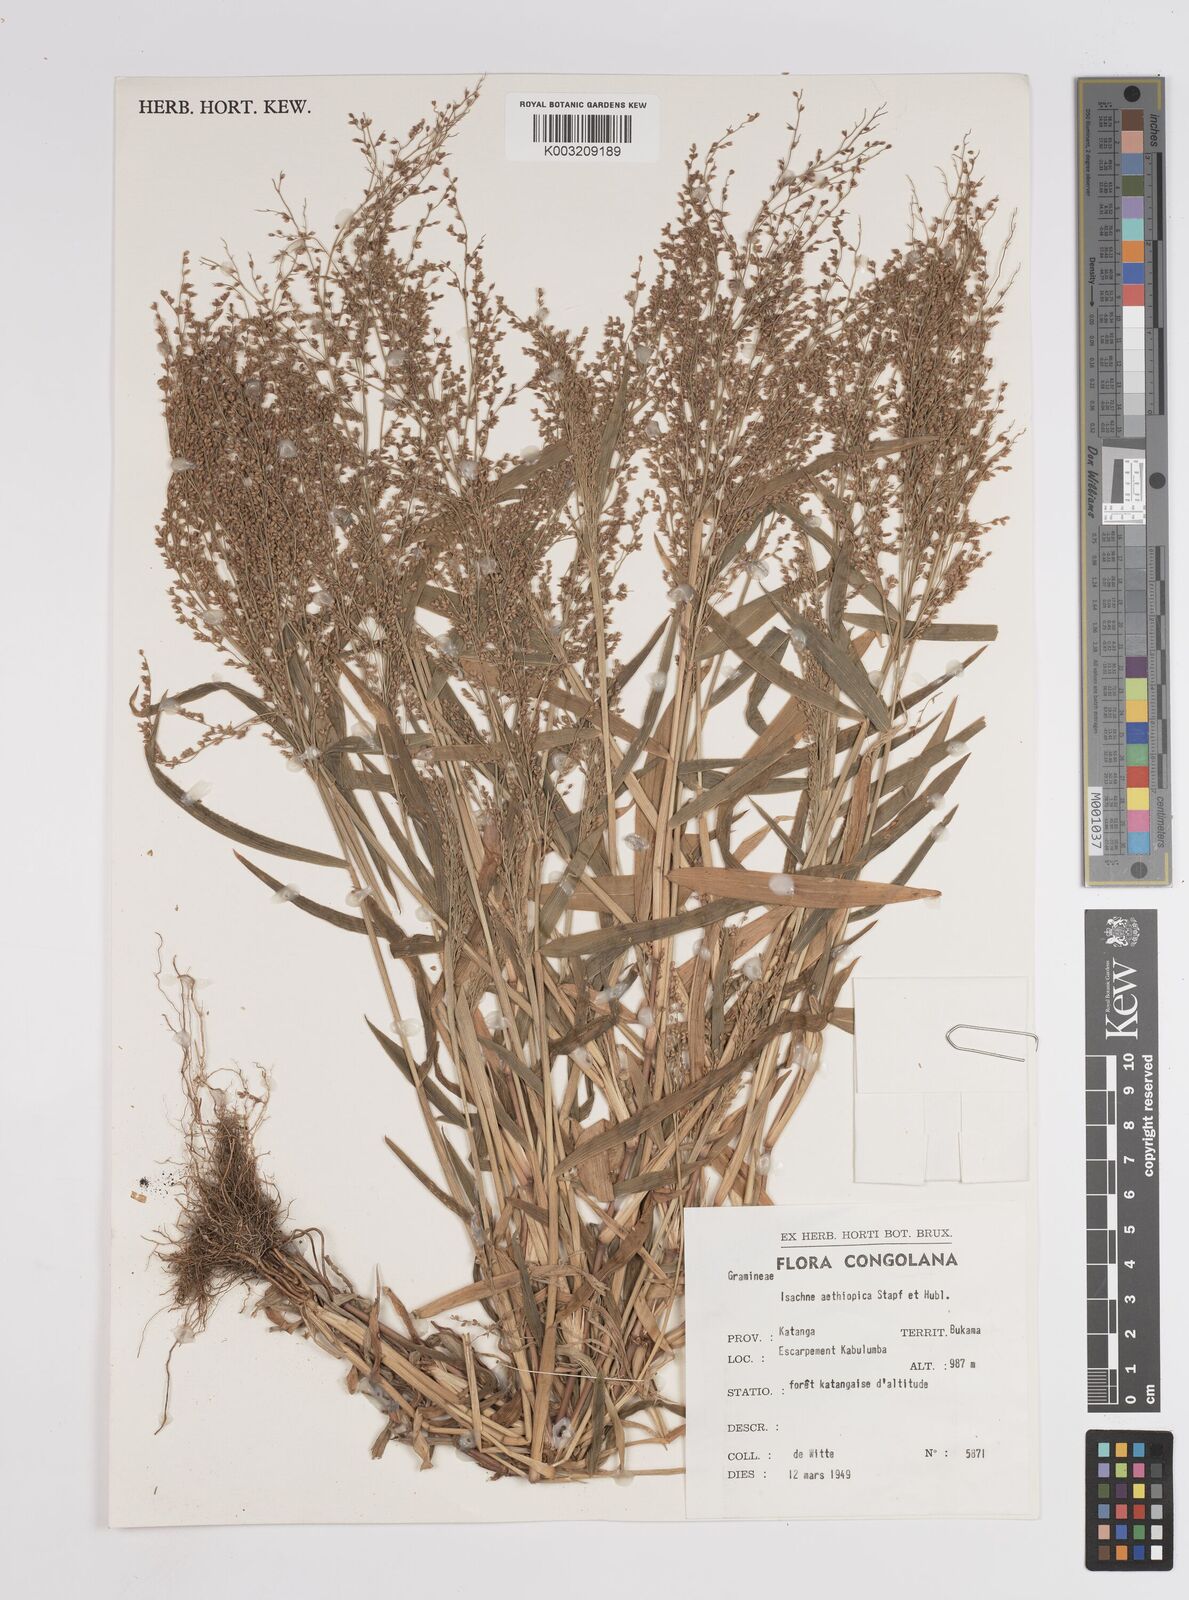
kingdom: Plantae
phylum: Tracheophyta
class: Liliopsida
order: Poales
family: Poaceae
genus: Panicum
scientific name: Panicum
